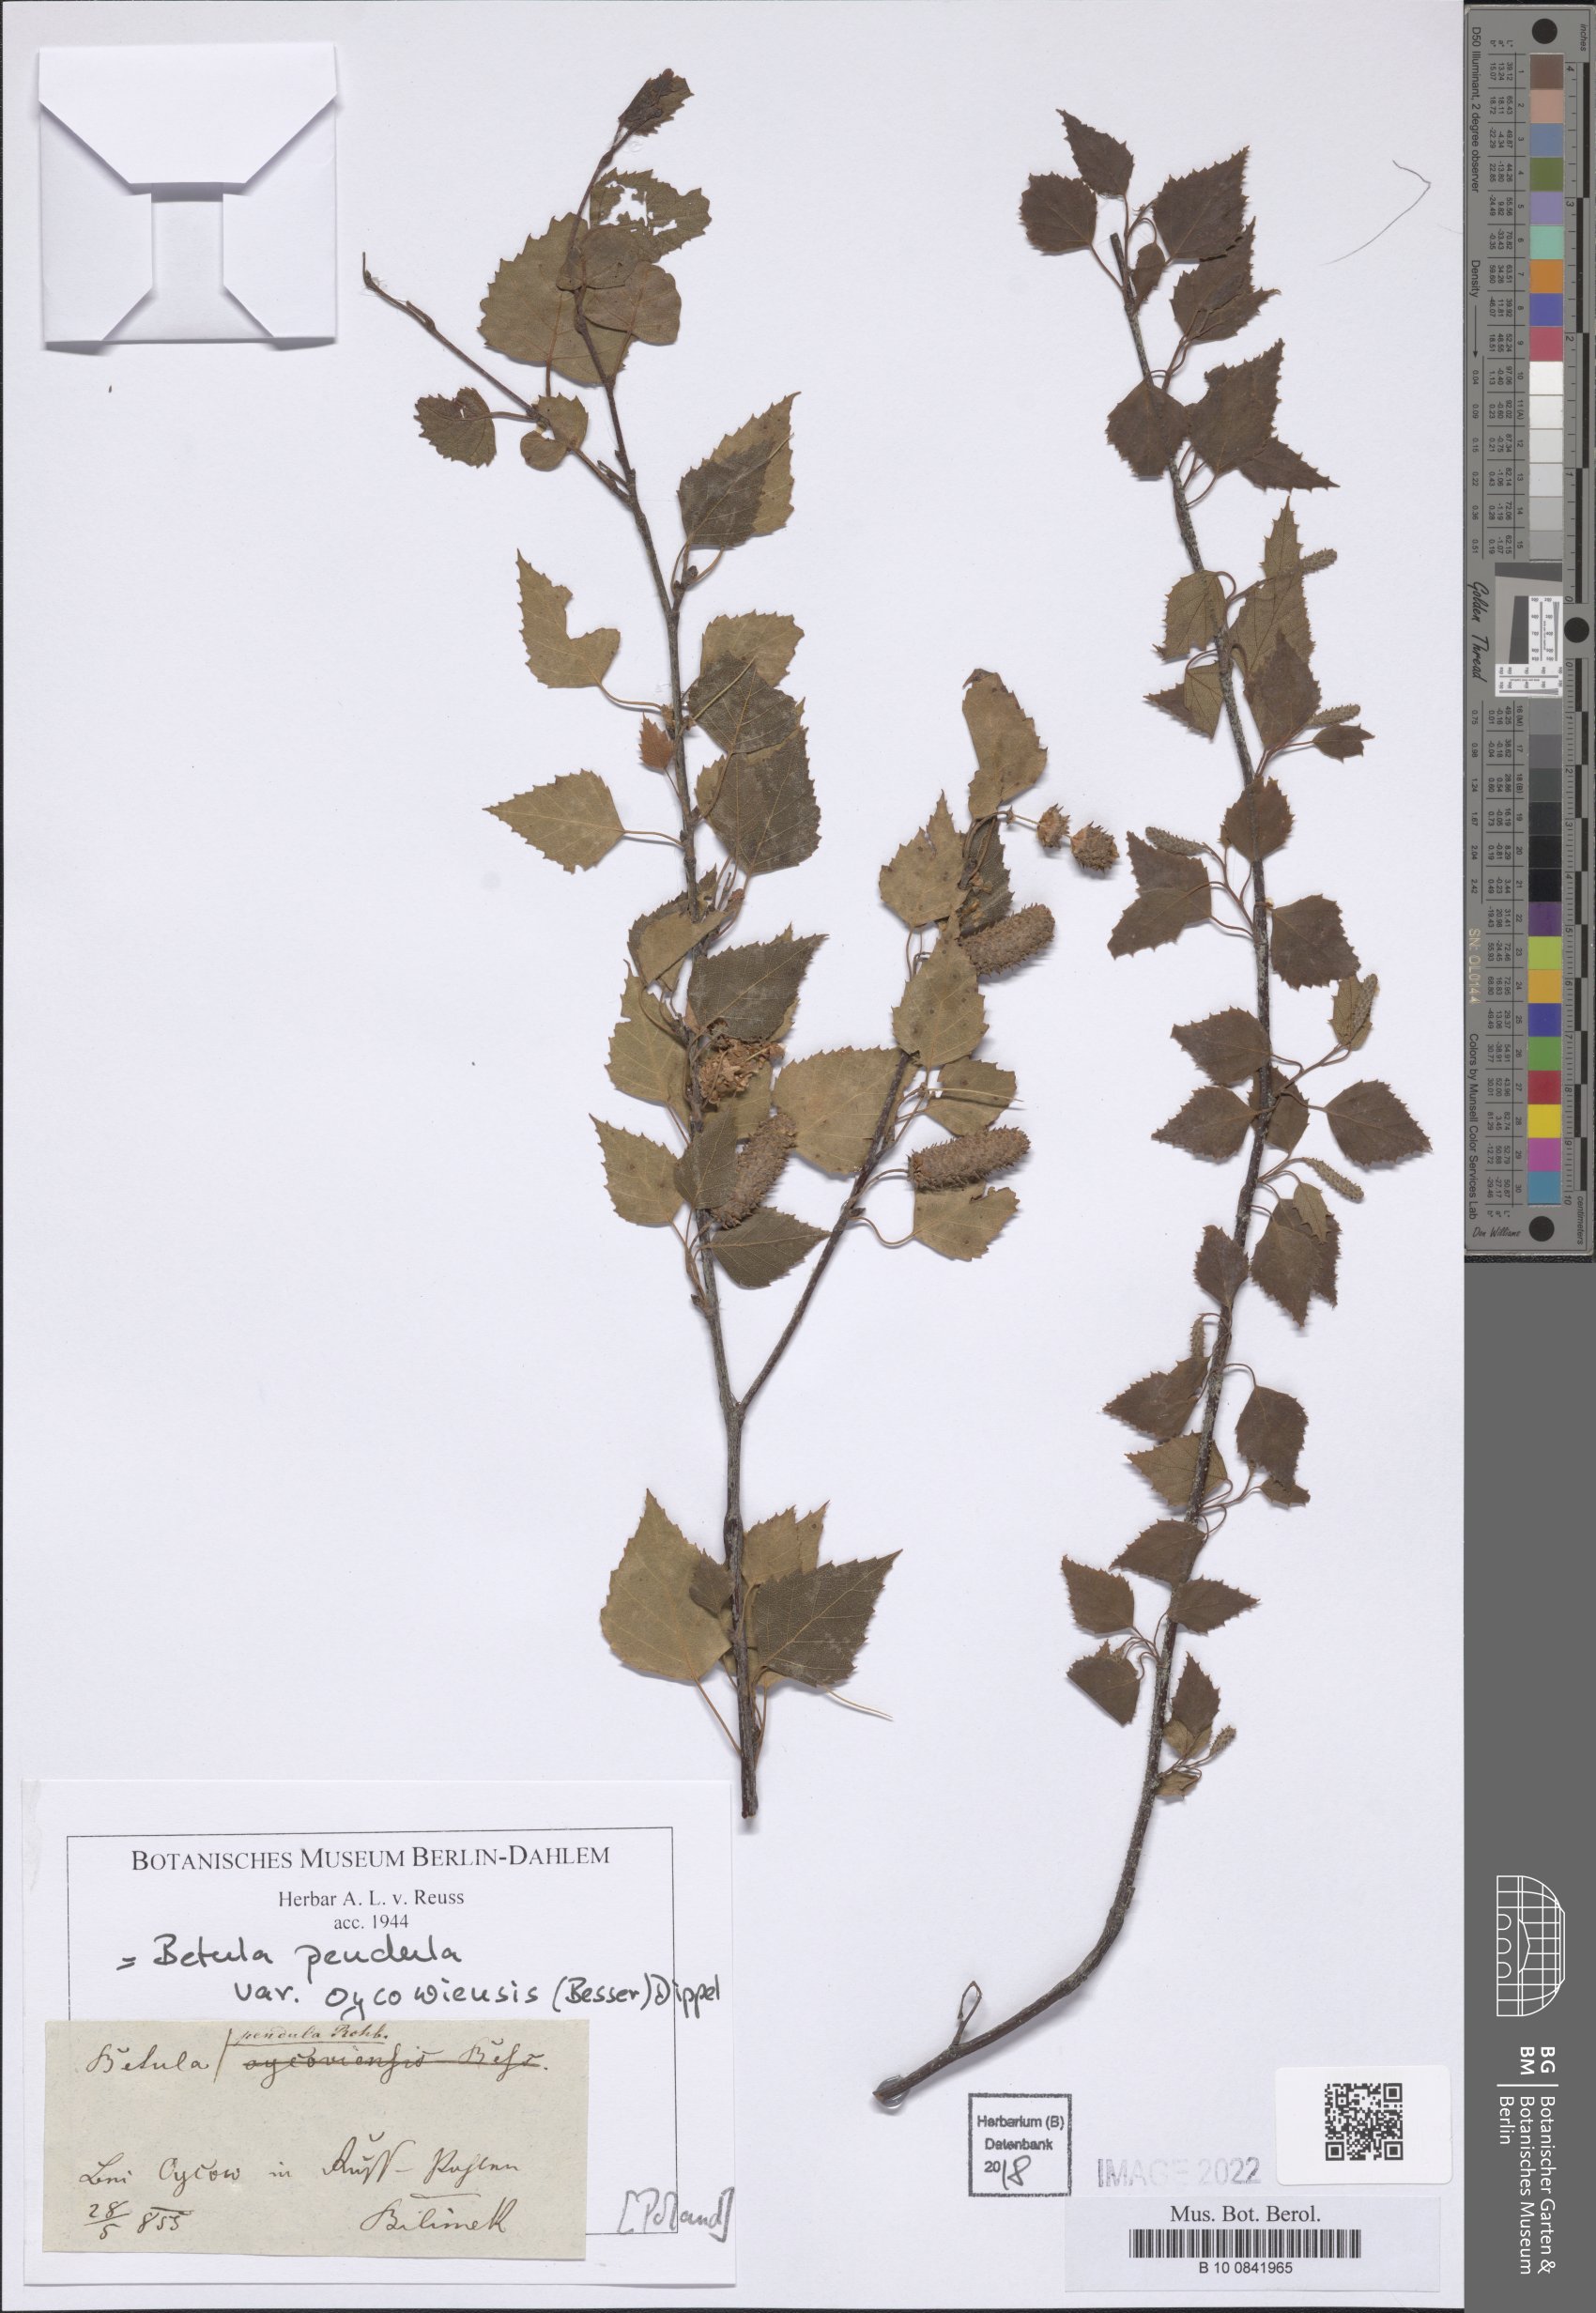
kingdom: Plantae
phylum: Tracheophyta
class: Magnoliopsida
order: Fagales
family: Betulaceae
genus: Betula
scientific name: Betula pendula
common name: Silver birch
